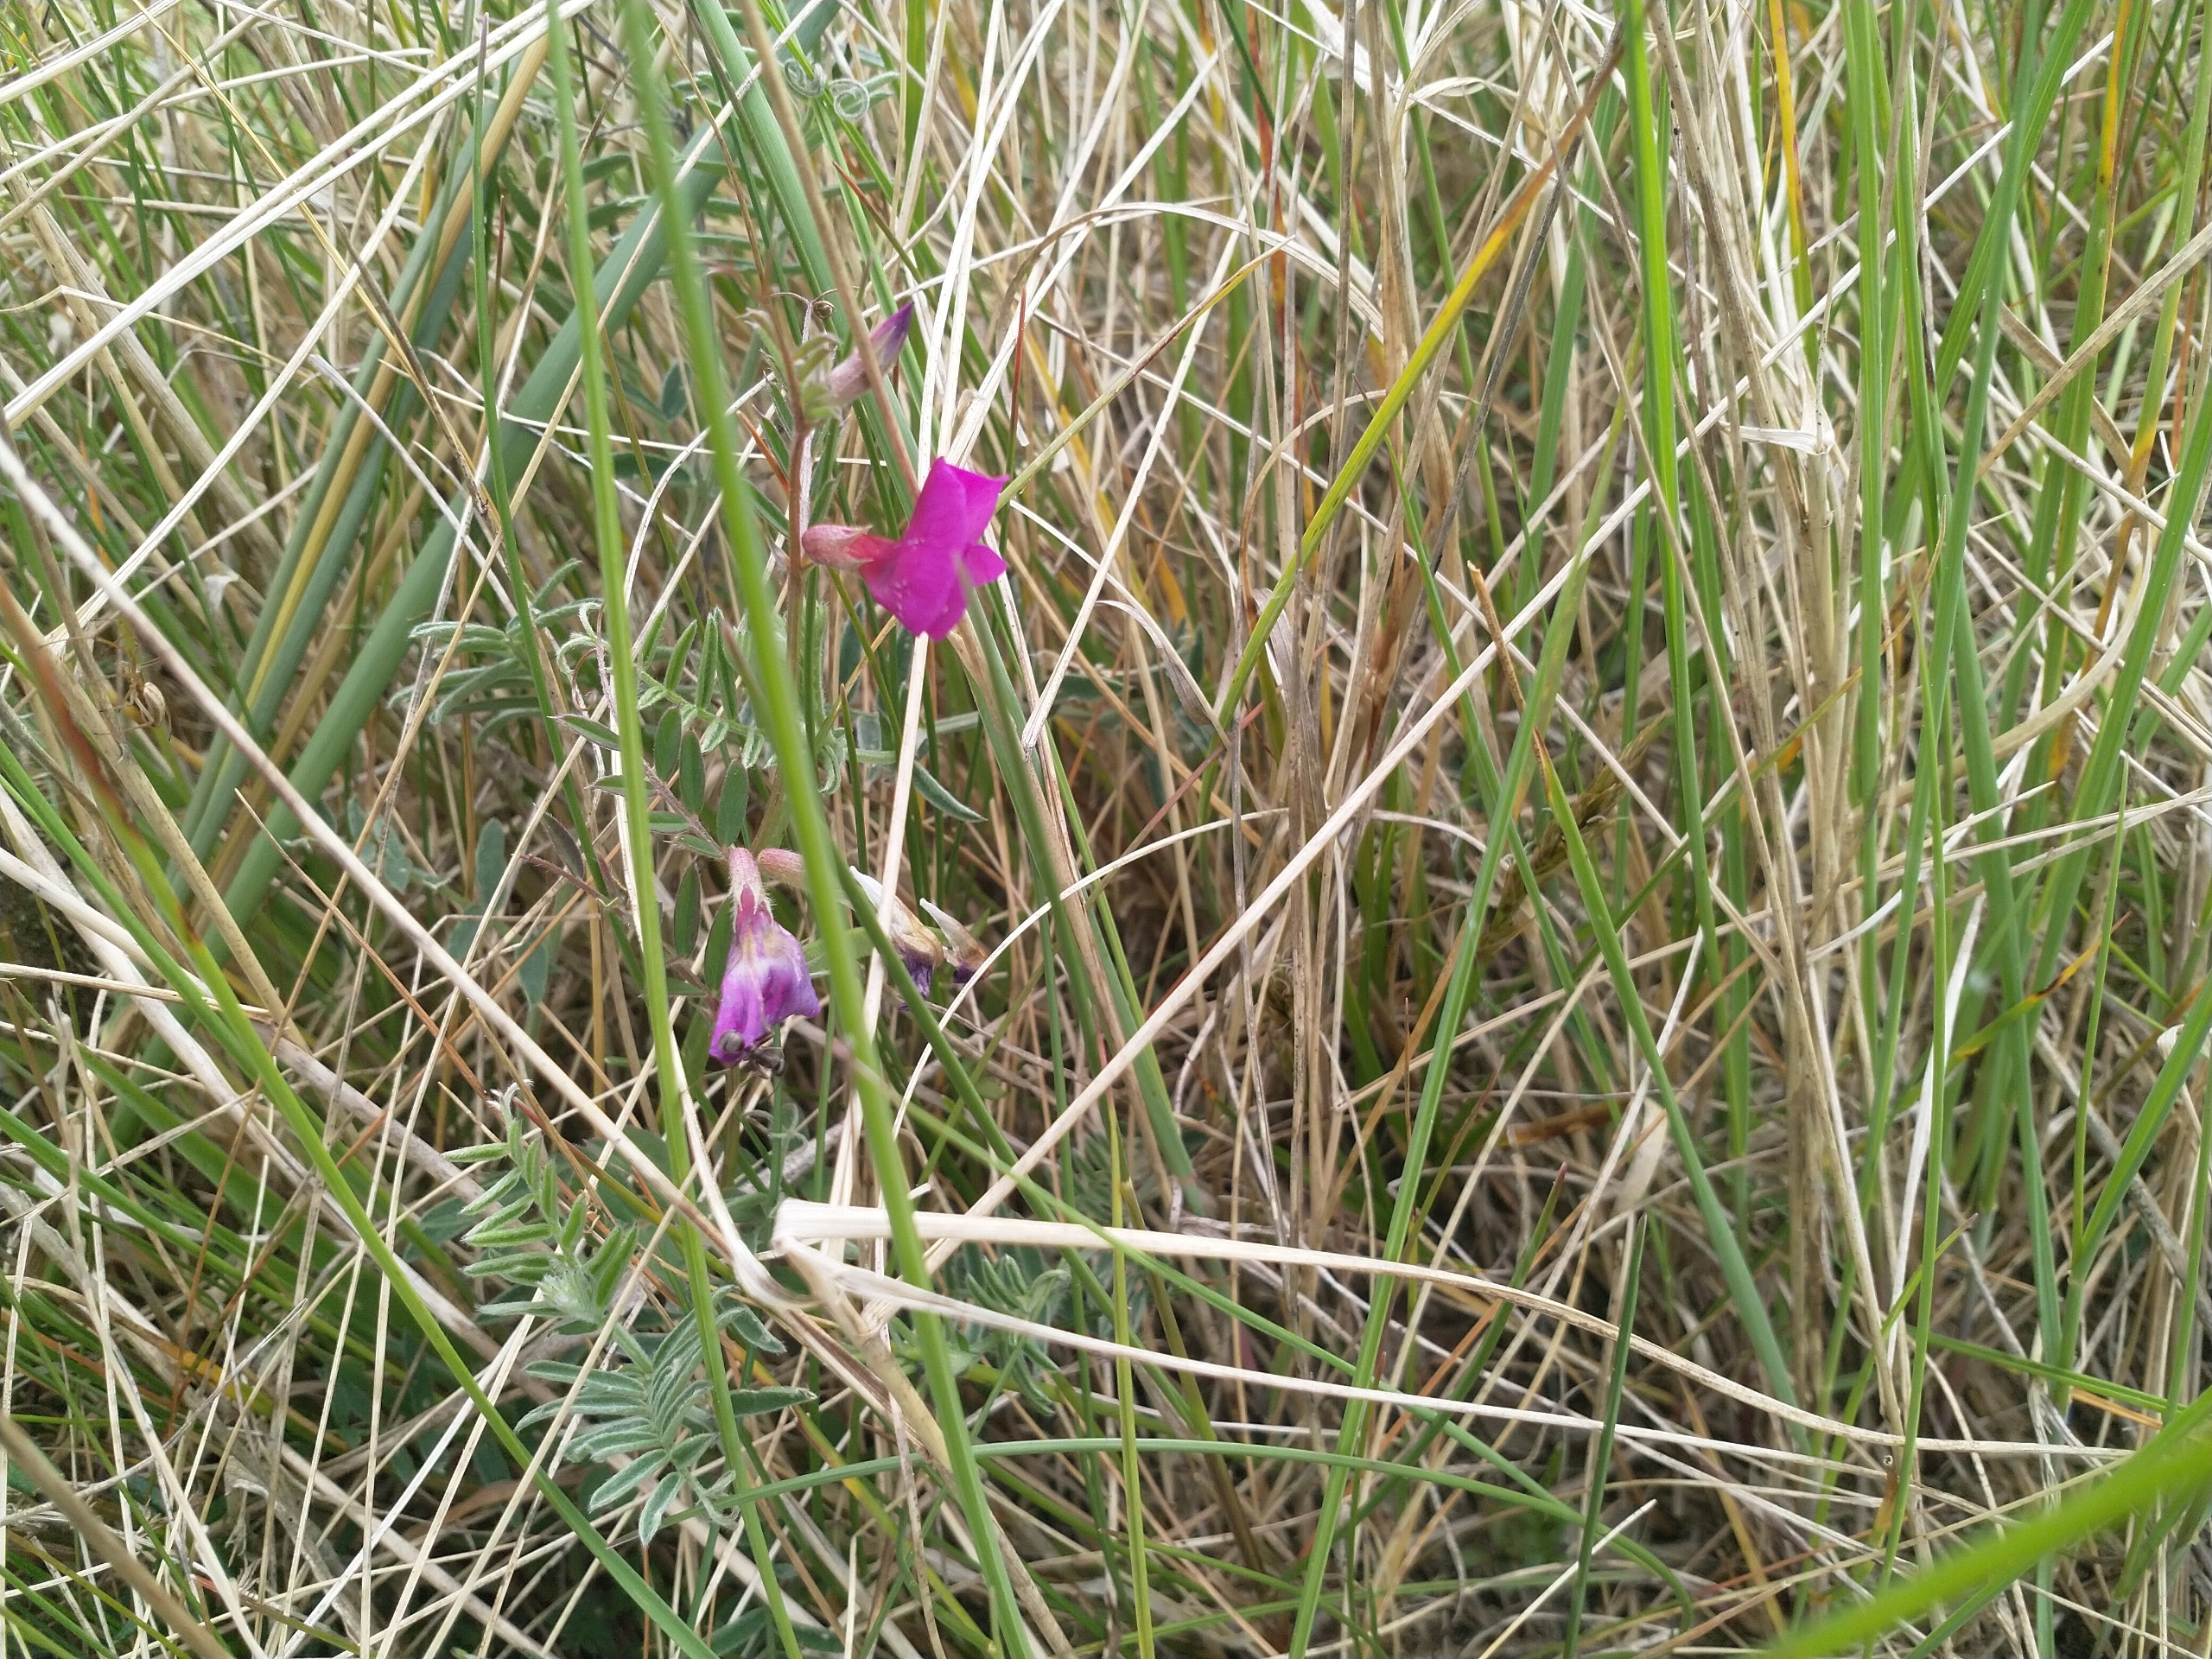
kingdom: Plantae
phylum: Tracheophyta
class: Magnoliopsida
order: Fabales
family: Fabaceae
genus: Vicia
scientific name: Vicia sativa
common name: Smalbladet vikke
